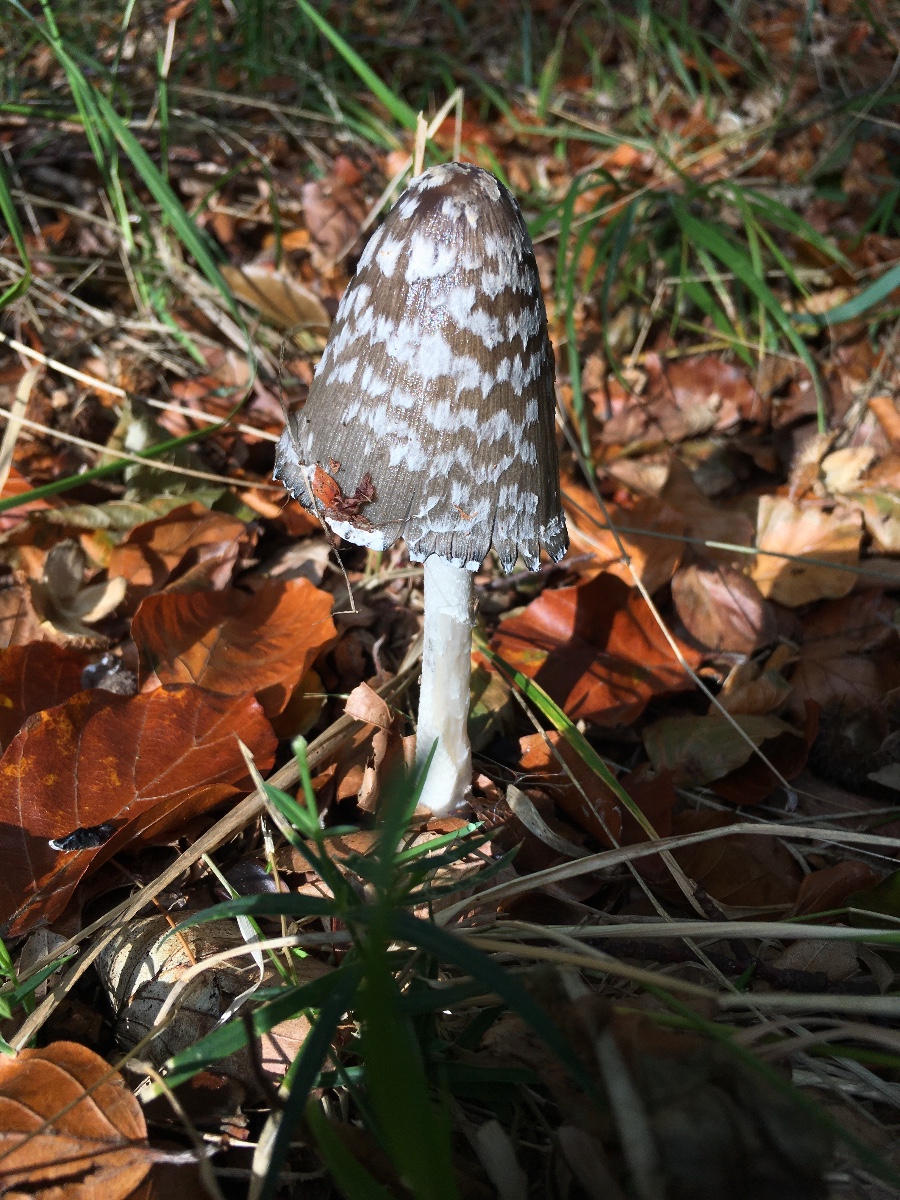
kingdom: Fungi
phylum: Basidiomycota
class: Agaricomycetes
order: Agaricales
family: Psathyrellaceae
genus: Coprinopsis
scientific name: Coprinopsis picacea
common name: skade-blækhat
